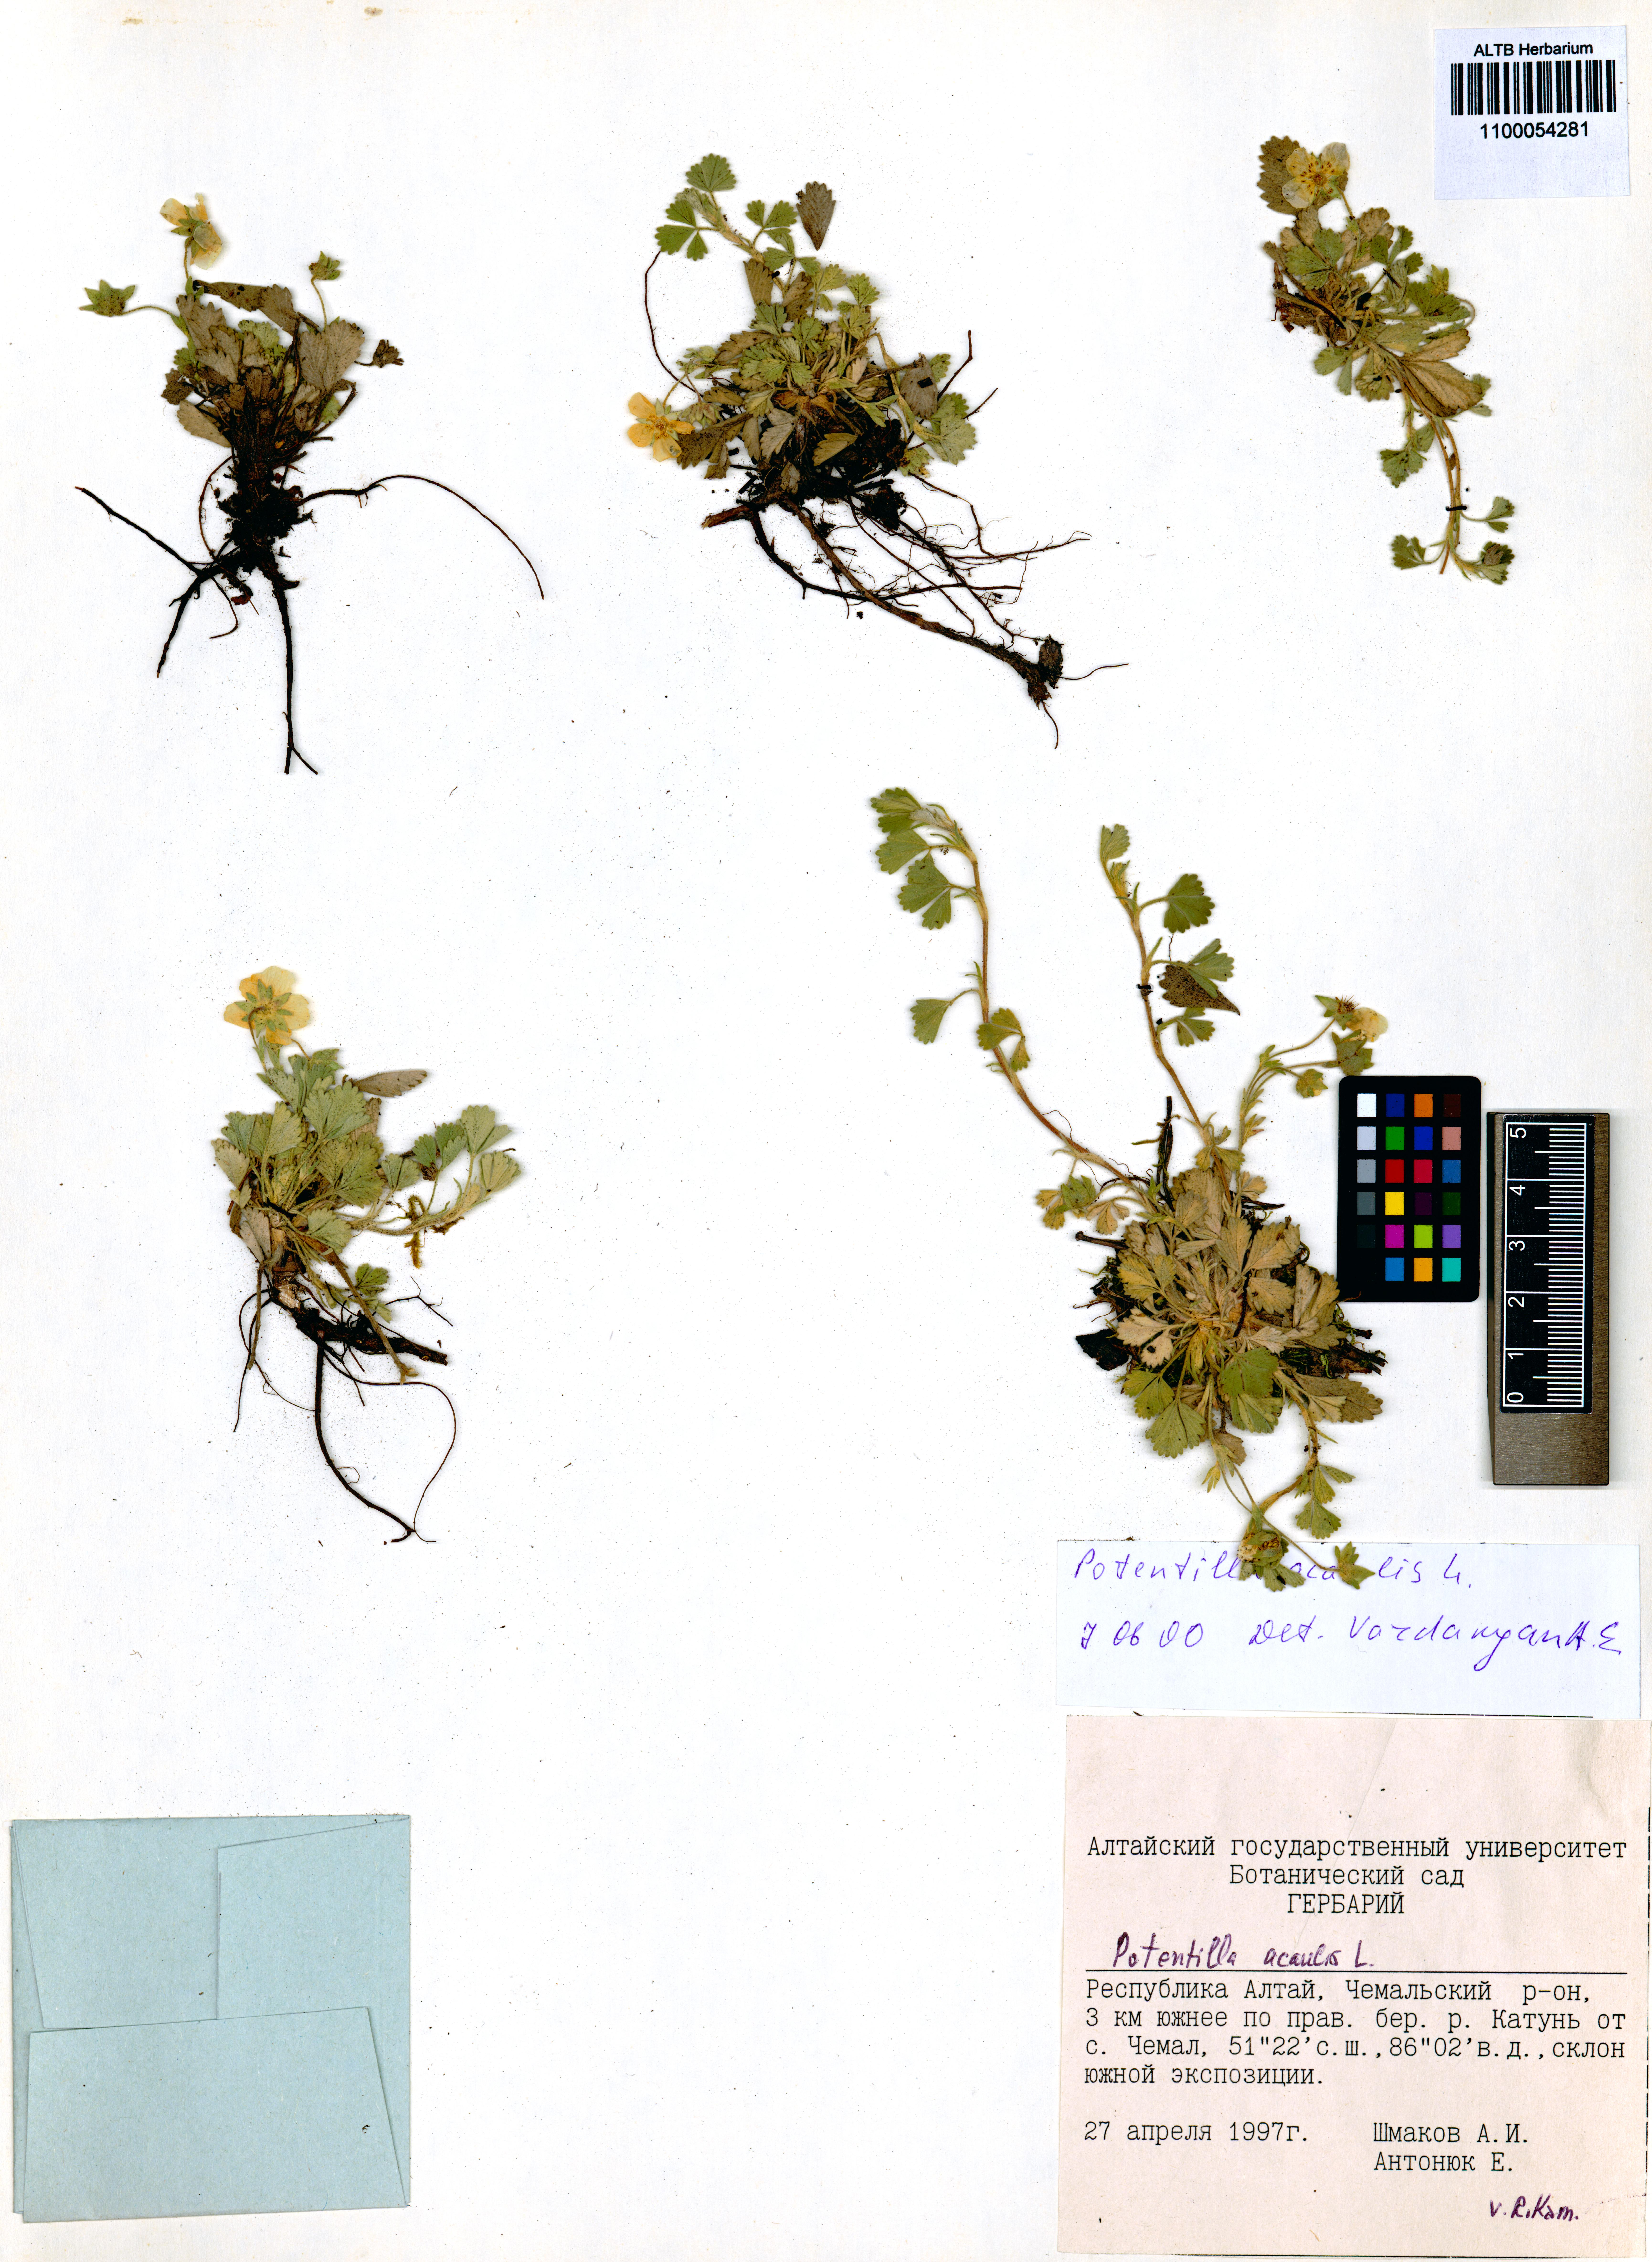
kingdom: Plantae
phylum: Tracheophyta
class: Magnoliopsida
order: Rosales
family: Rosaceae
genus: Potentilla
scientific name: Potentilla acaulis
